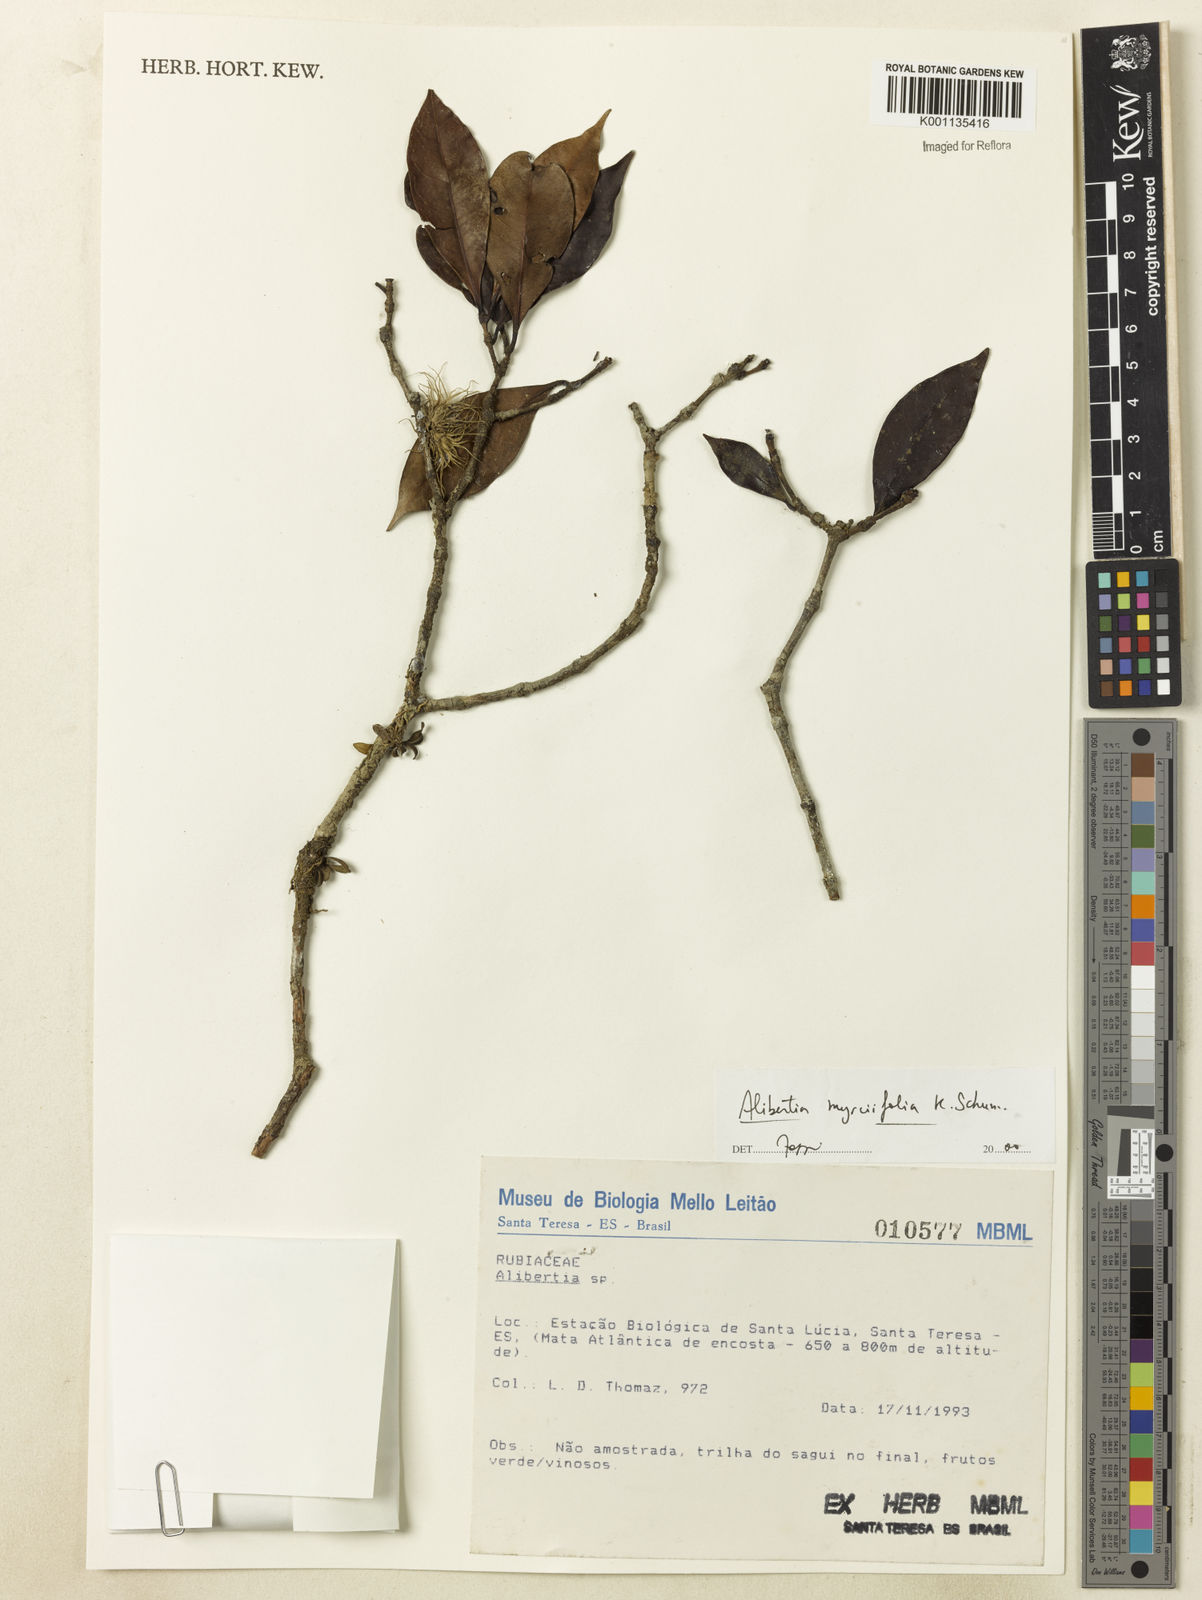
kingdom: Plantae
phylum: Tracheophyta
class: Magnoliopsida
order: Gentianales
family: Rubiaceae
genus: Cordiera
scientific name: Cordiera myrciifolia
